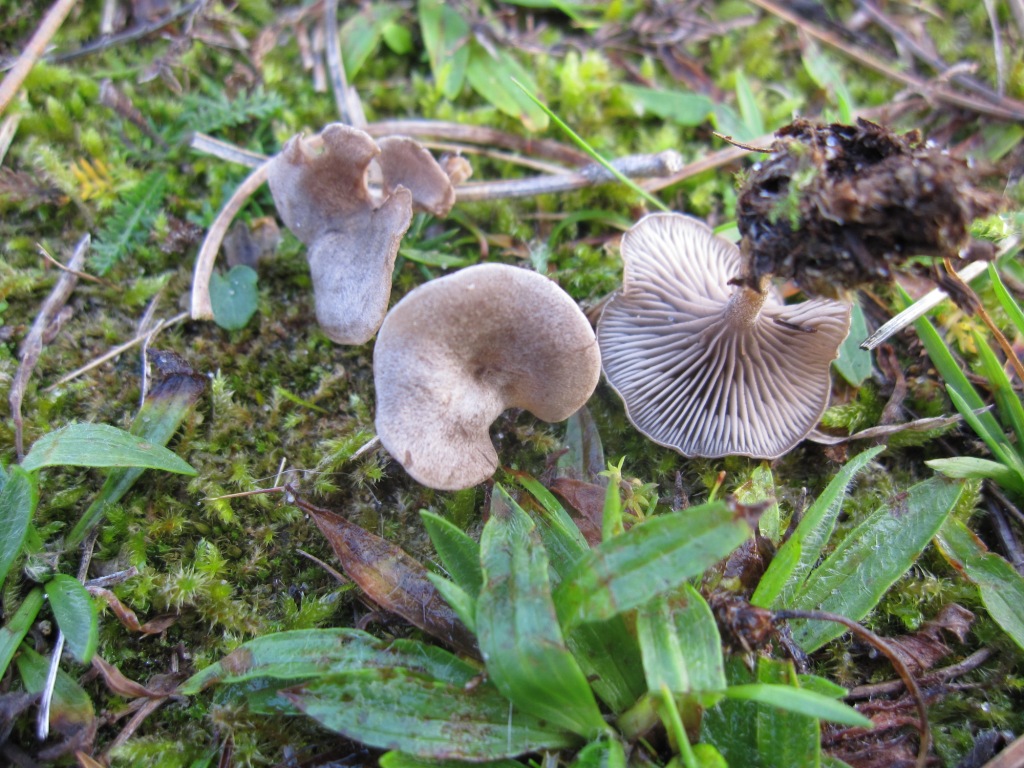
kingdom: Fungi
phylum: Basidiomycota
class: Agaricomycetes
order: Agaricales
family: Entolomataceae
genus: Entoloma
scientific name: Entoloma undatum
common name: bæltet rødblad
